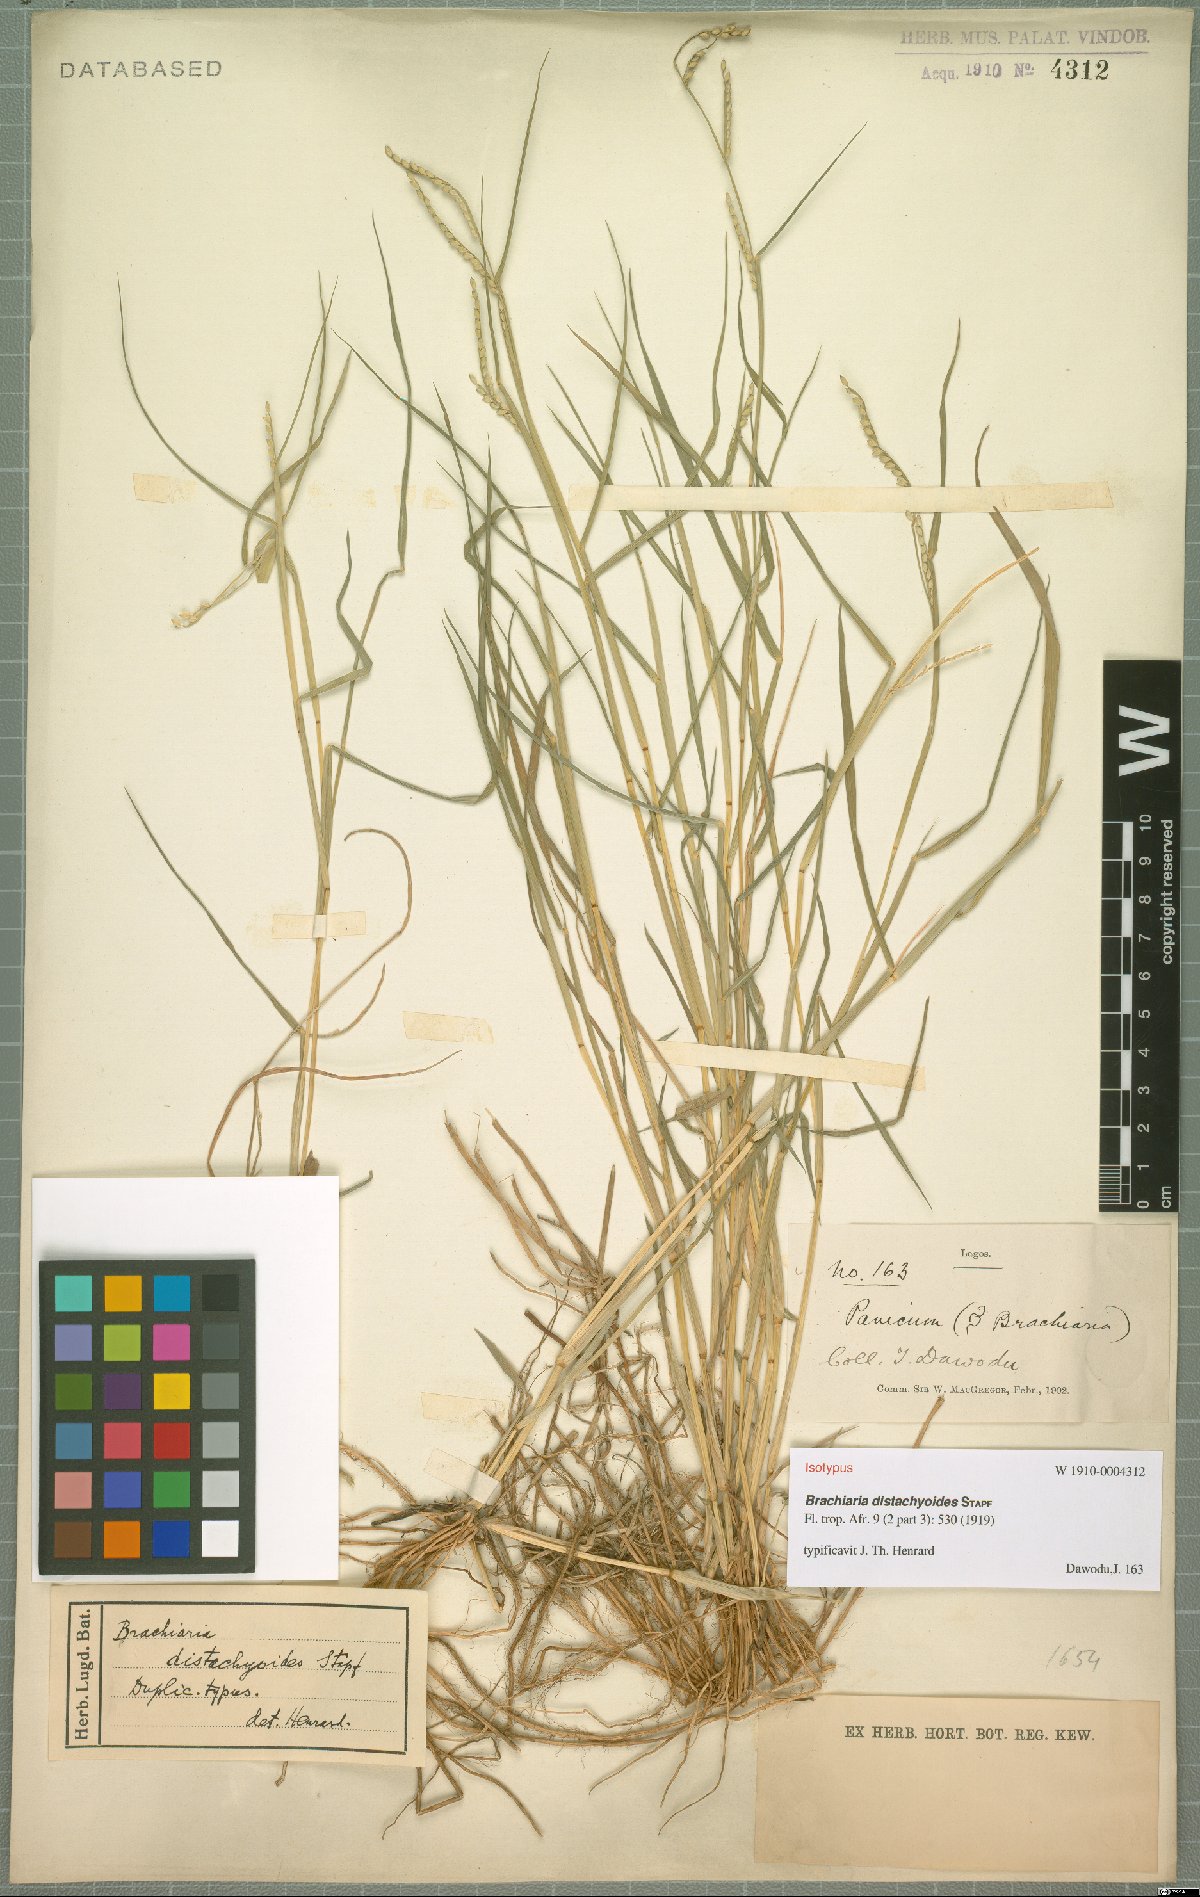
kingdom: Plantae
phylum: Tracheophyta
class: Liliopsida
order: Poales
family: Poaceae
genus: Urochloa
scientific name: Urochloa distachyoides
